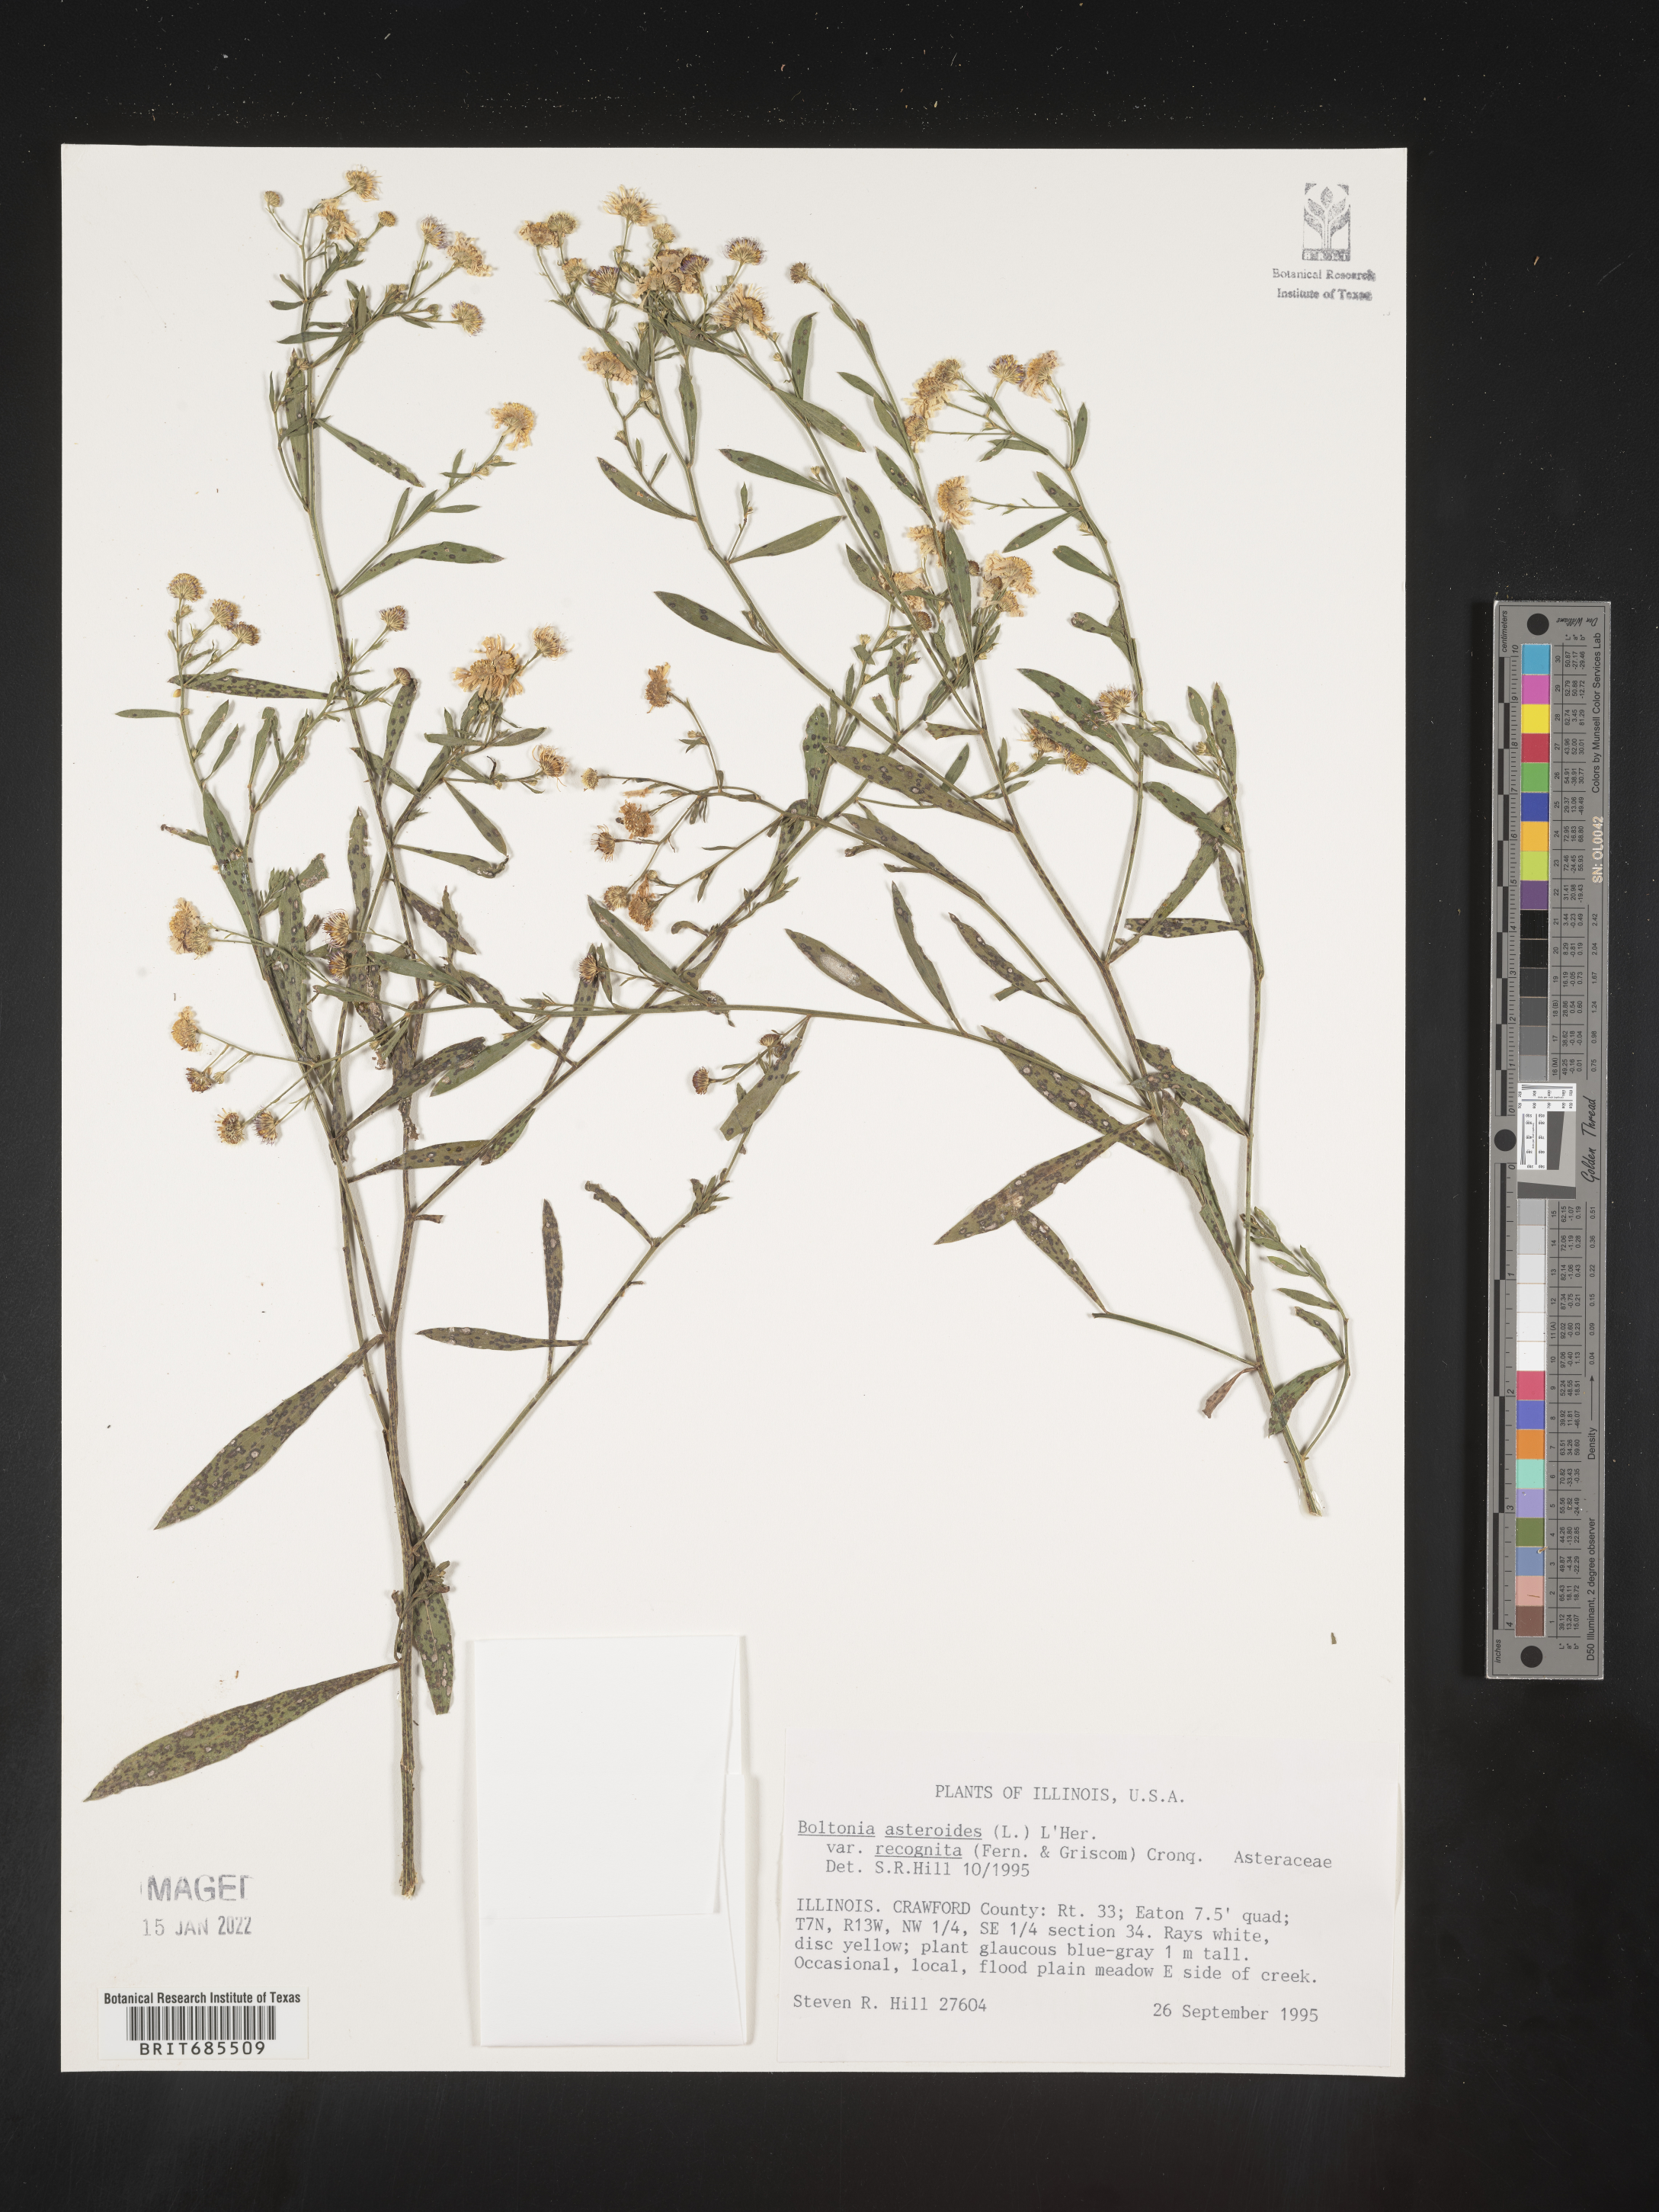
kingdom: Plantae
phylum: Tracheophyta
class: Magnoliopsida
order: Asterales
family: Asteraceae
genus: Boltonia
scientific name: Boltonia asteroides
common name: False chamomile
